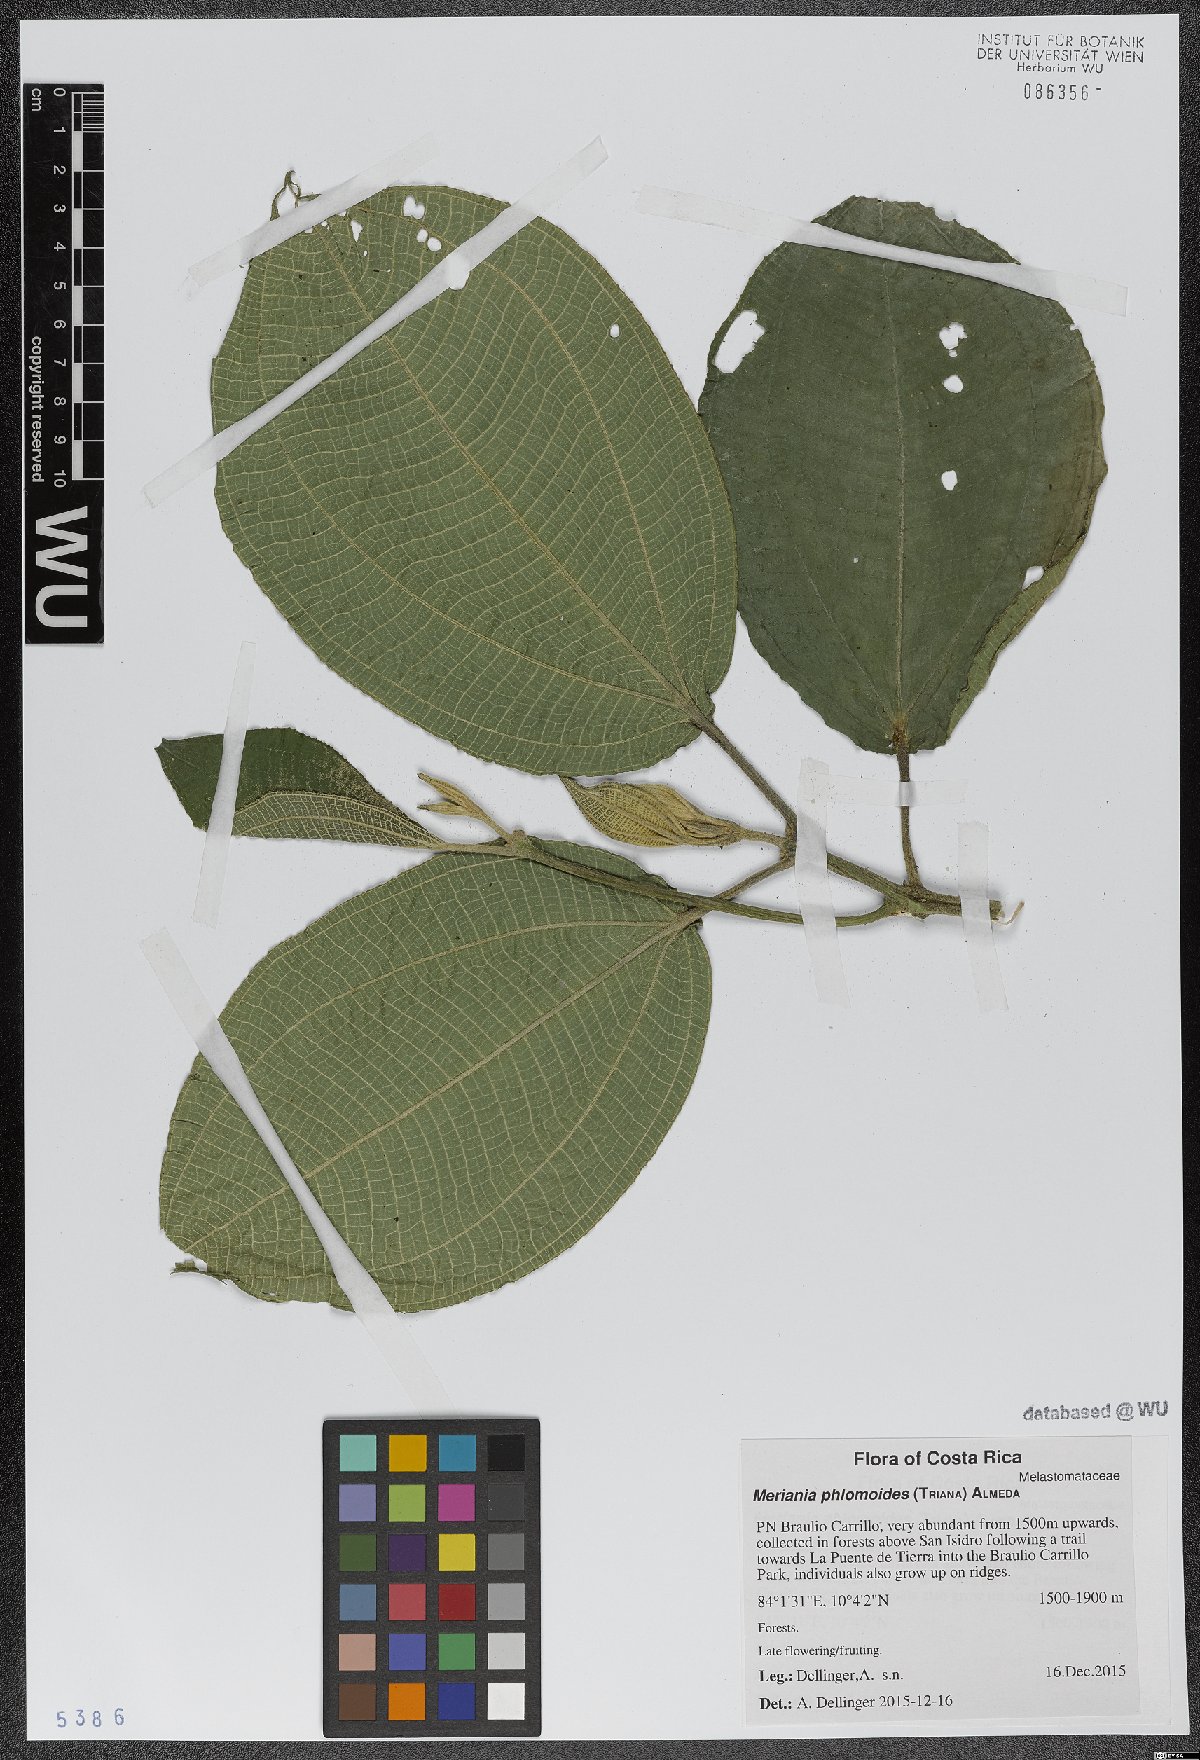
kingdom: Plantae
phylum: Tracheophyta
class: Magnoliopsida
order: Myrtales
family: Melastomataceae
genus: Meriania
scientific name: Meriania phlomoides
